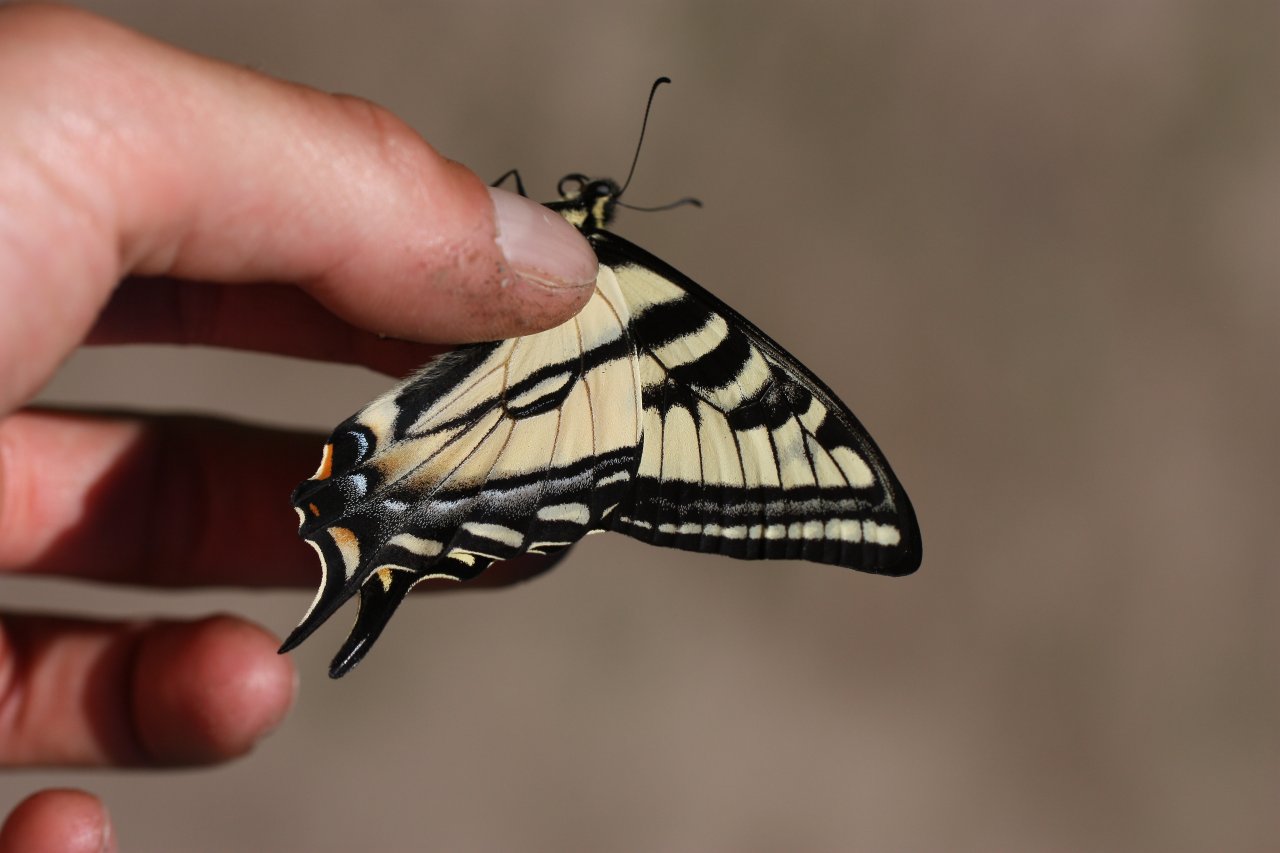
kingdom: Animalia
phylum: Arthropoda
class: Insecta
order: Lepidoptera
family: Papilionidae
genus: Pterourus
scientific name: Pterourus rutulus
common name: Western Tiger Swallowtail
